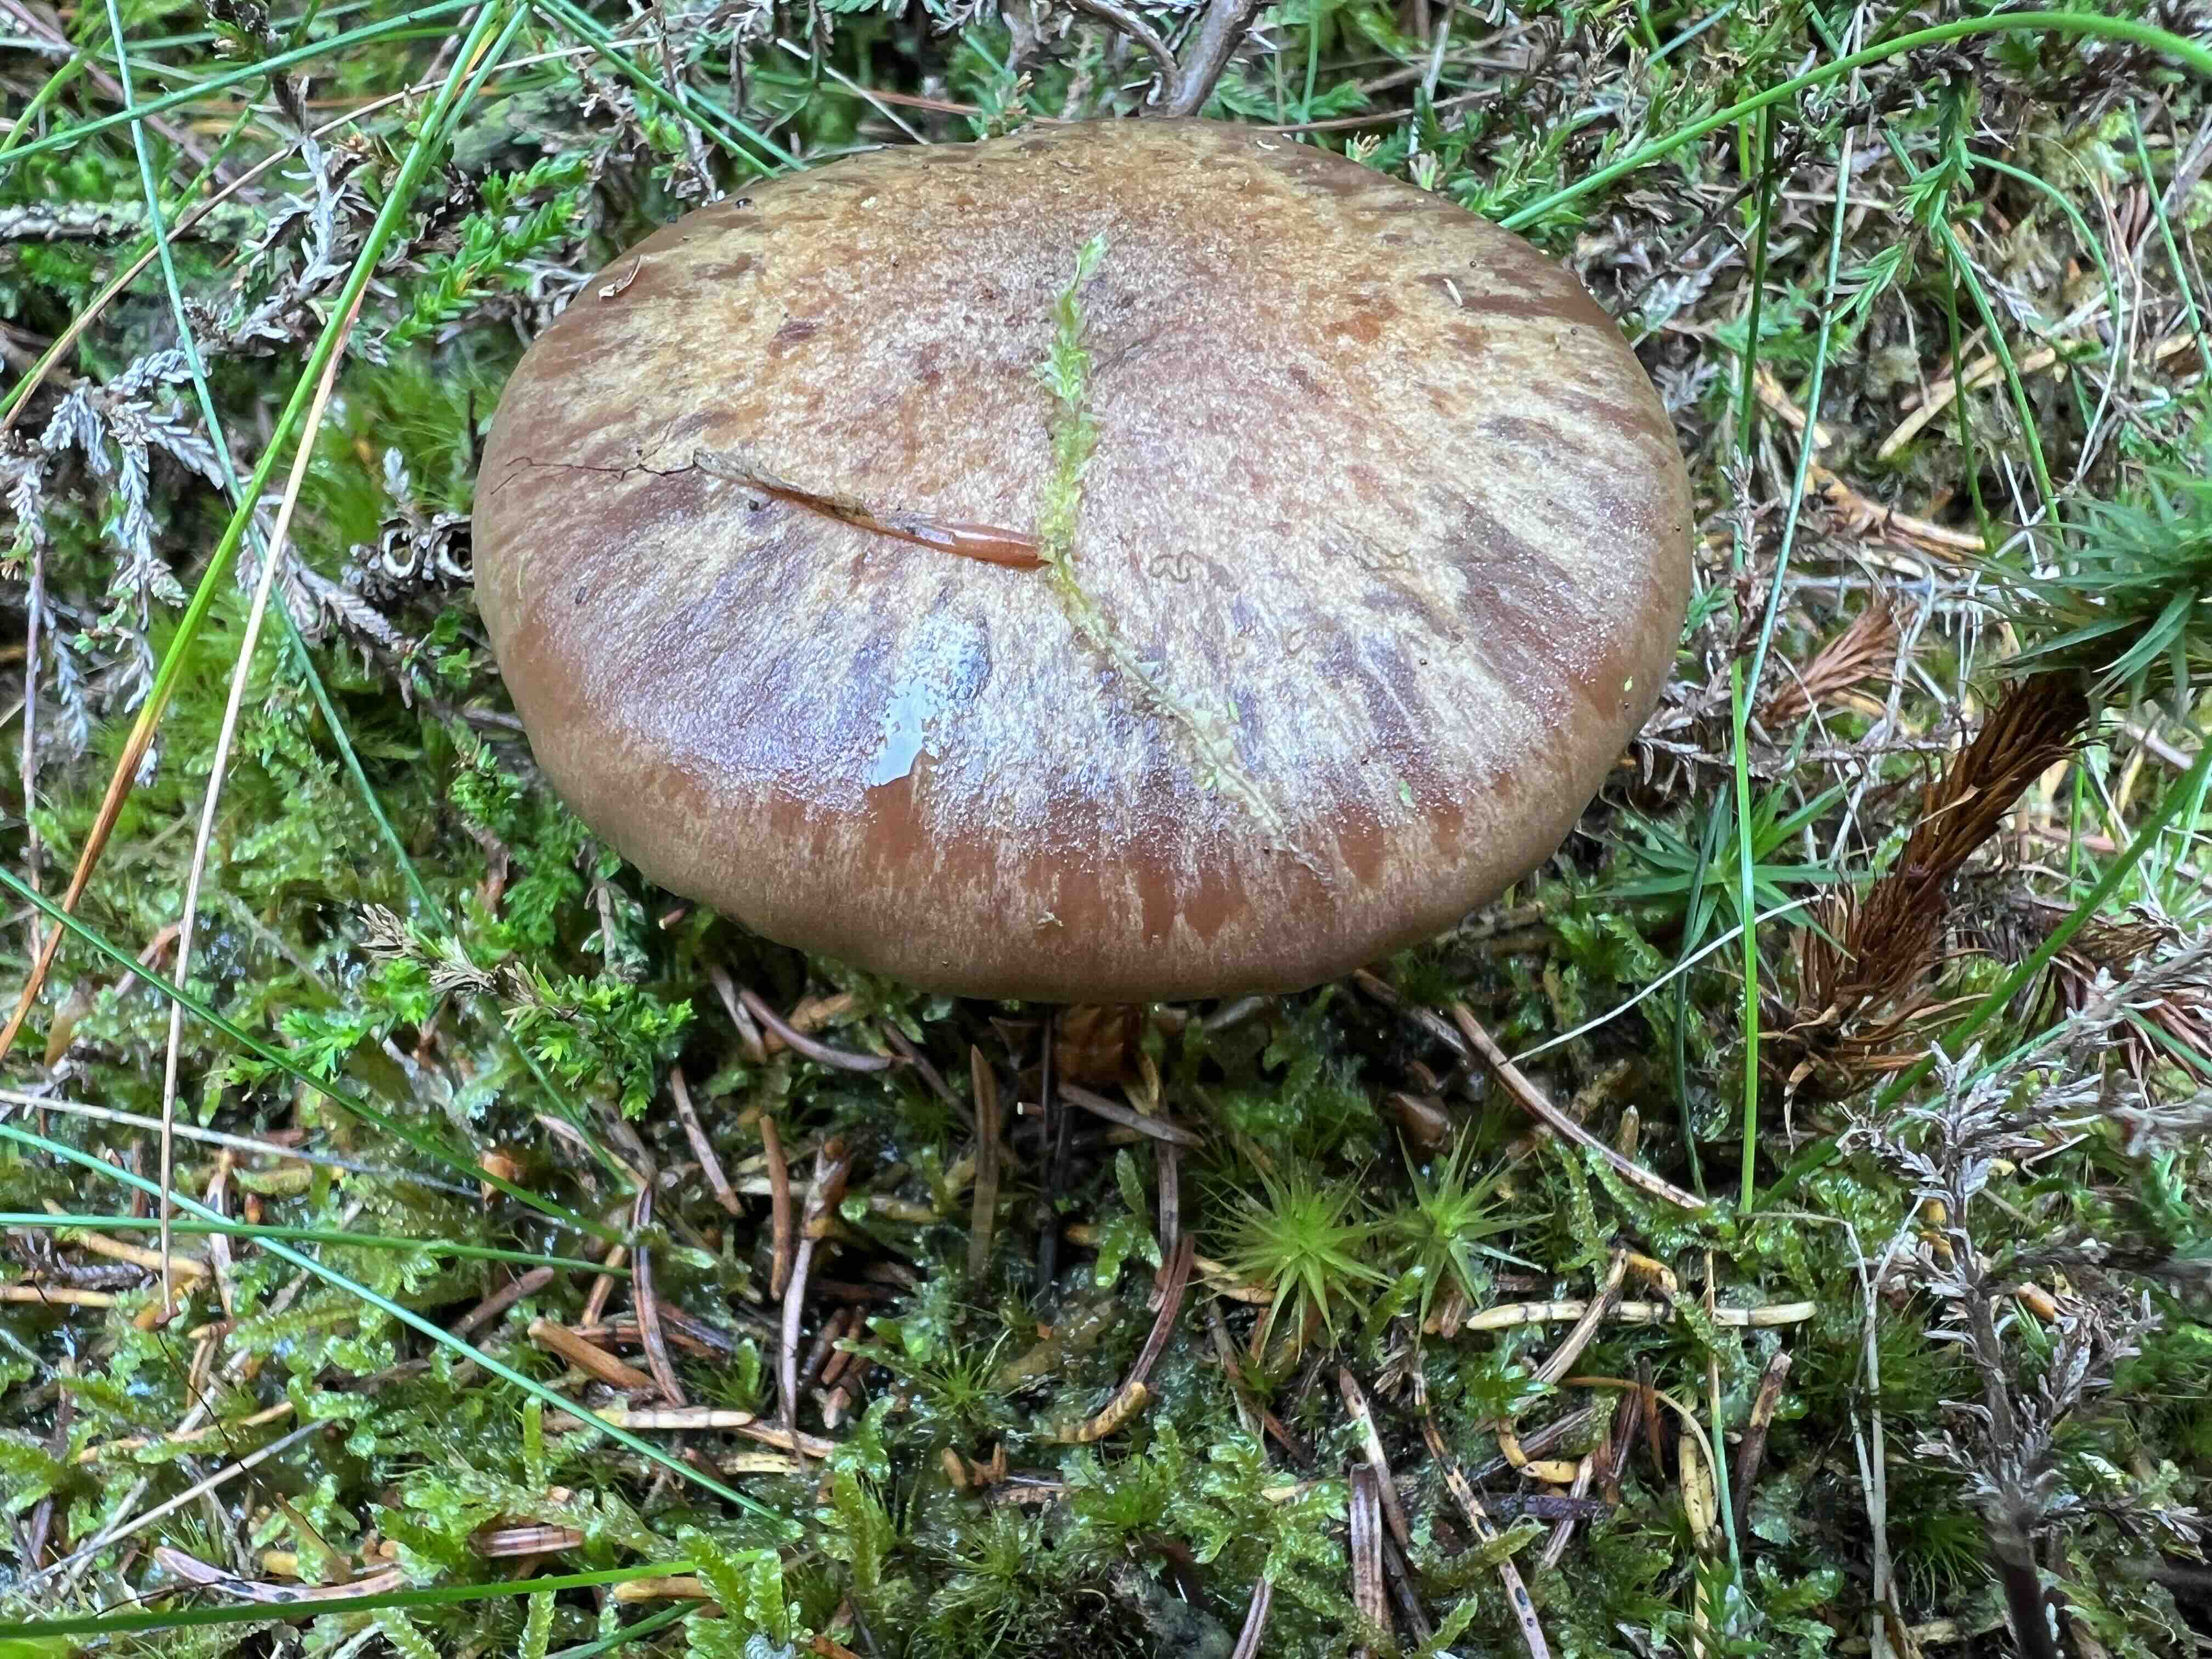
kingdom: Fungi
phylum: Basidiomycota
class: Agaricomycetes
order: Agaricales
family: Cortinariaceae
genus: Thaxterogaster
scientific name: Thaxterogaster sphagnophilus
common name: vandplettet slørhat
